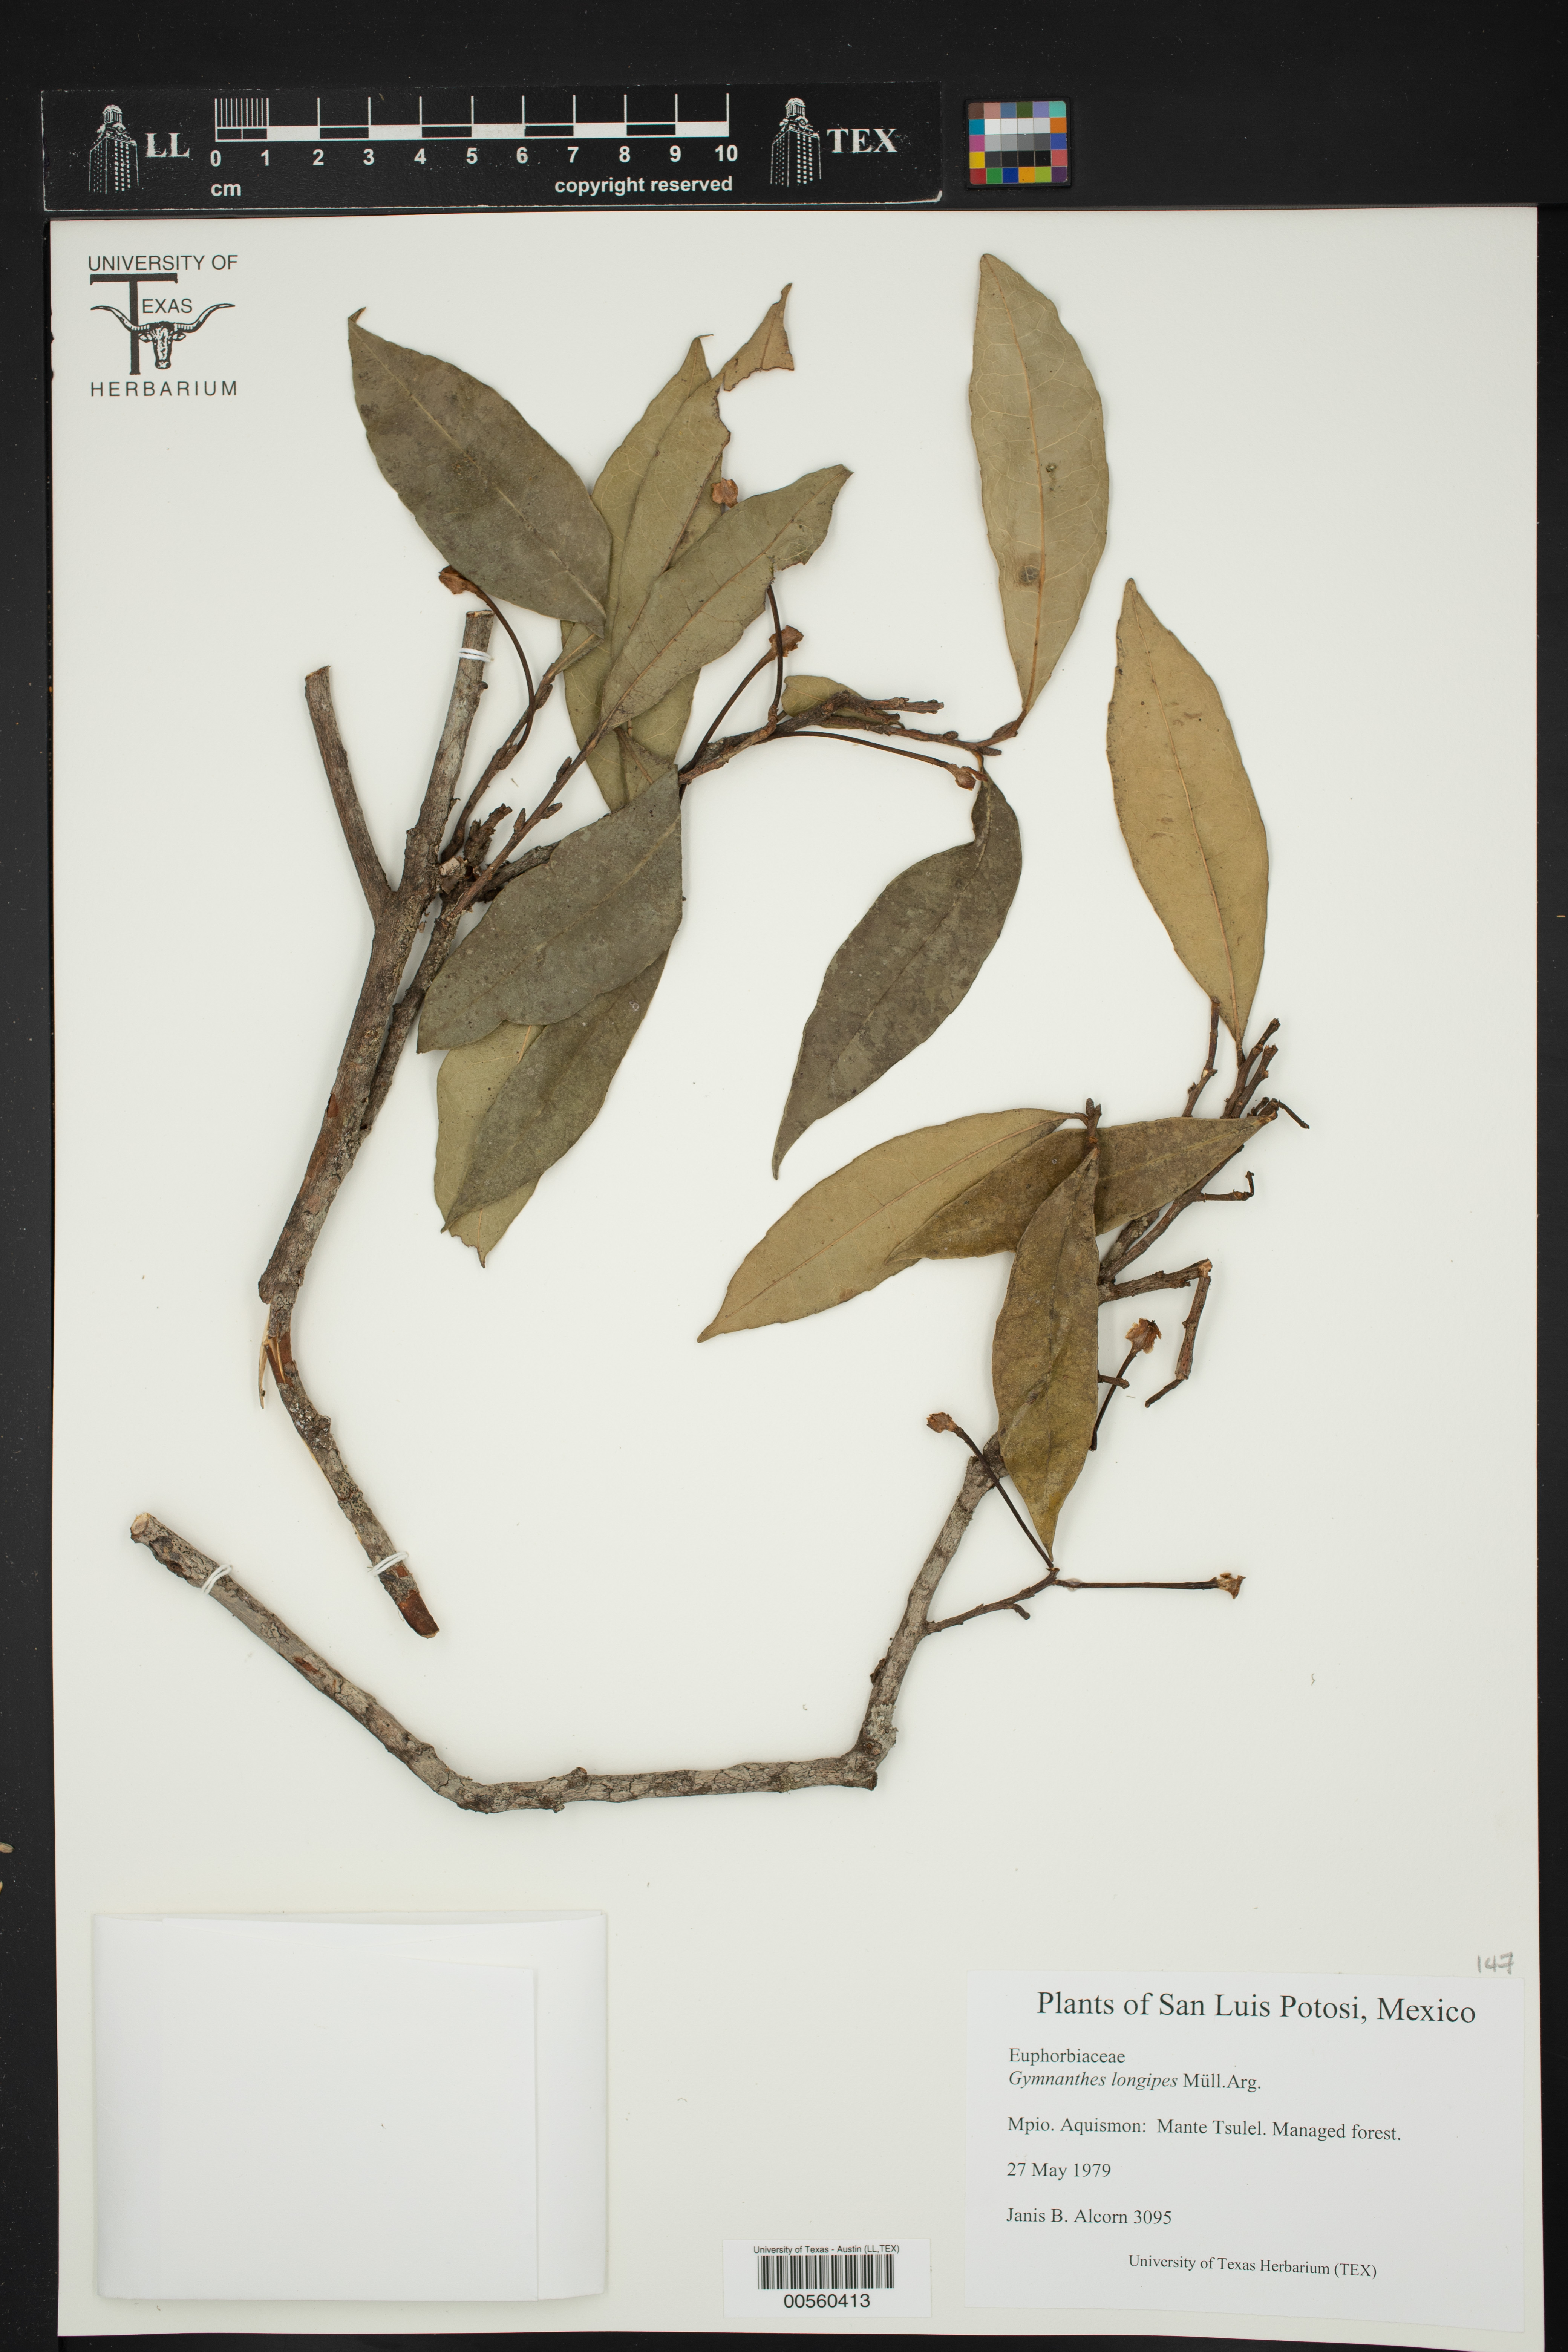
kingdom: Plantae
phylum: Tracheophyta
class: Magnoliopsida
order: Malpighiales
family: Euphorbiaceae
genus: Gymnanthes
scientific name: Gymnanthes longipes
